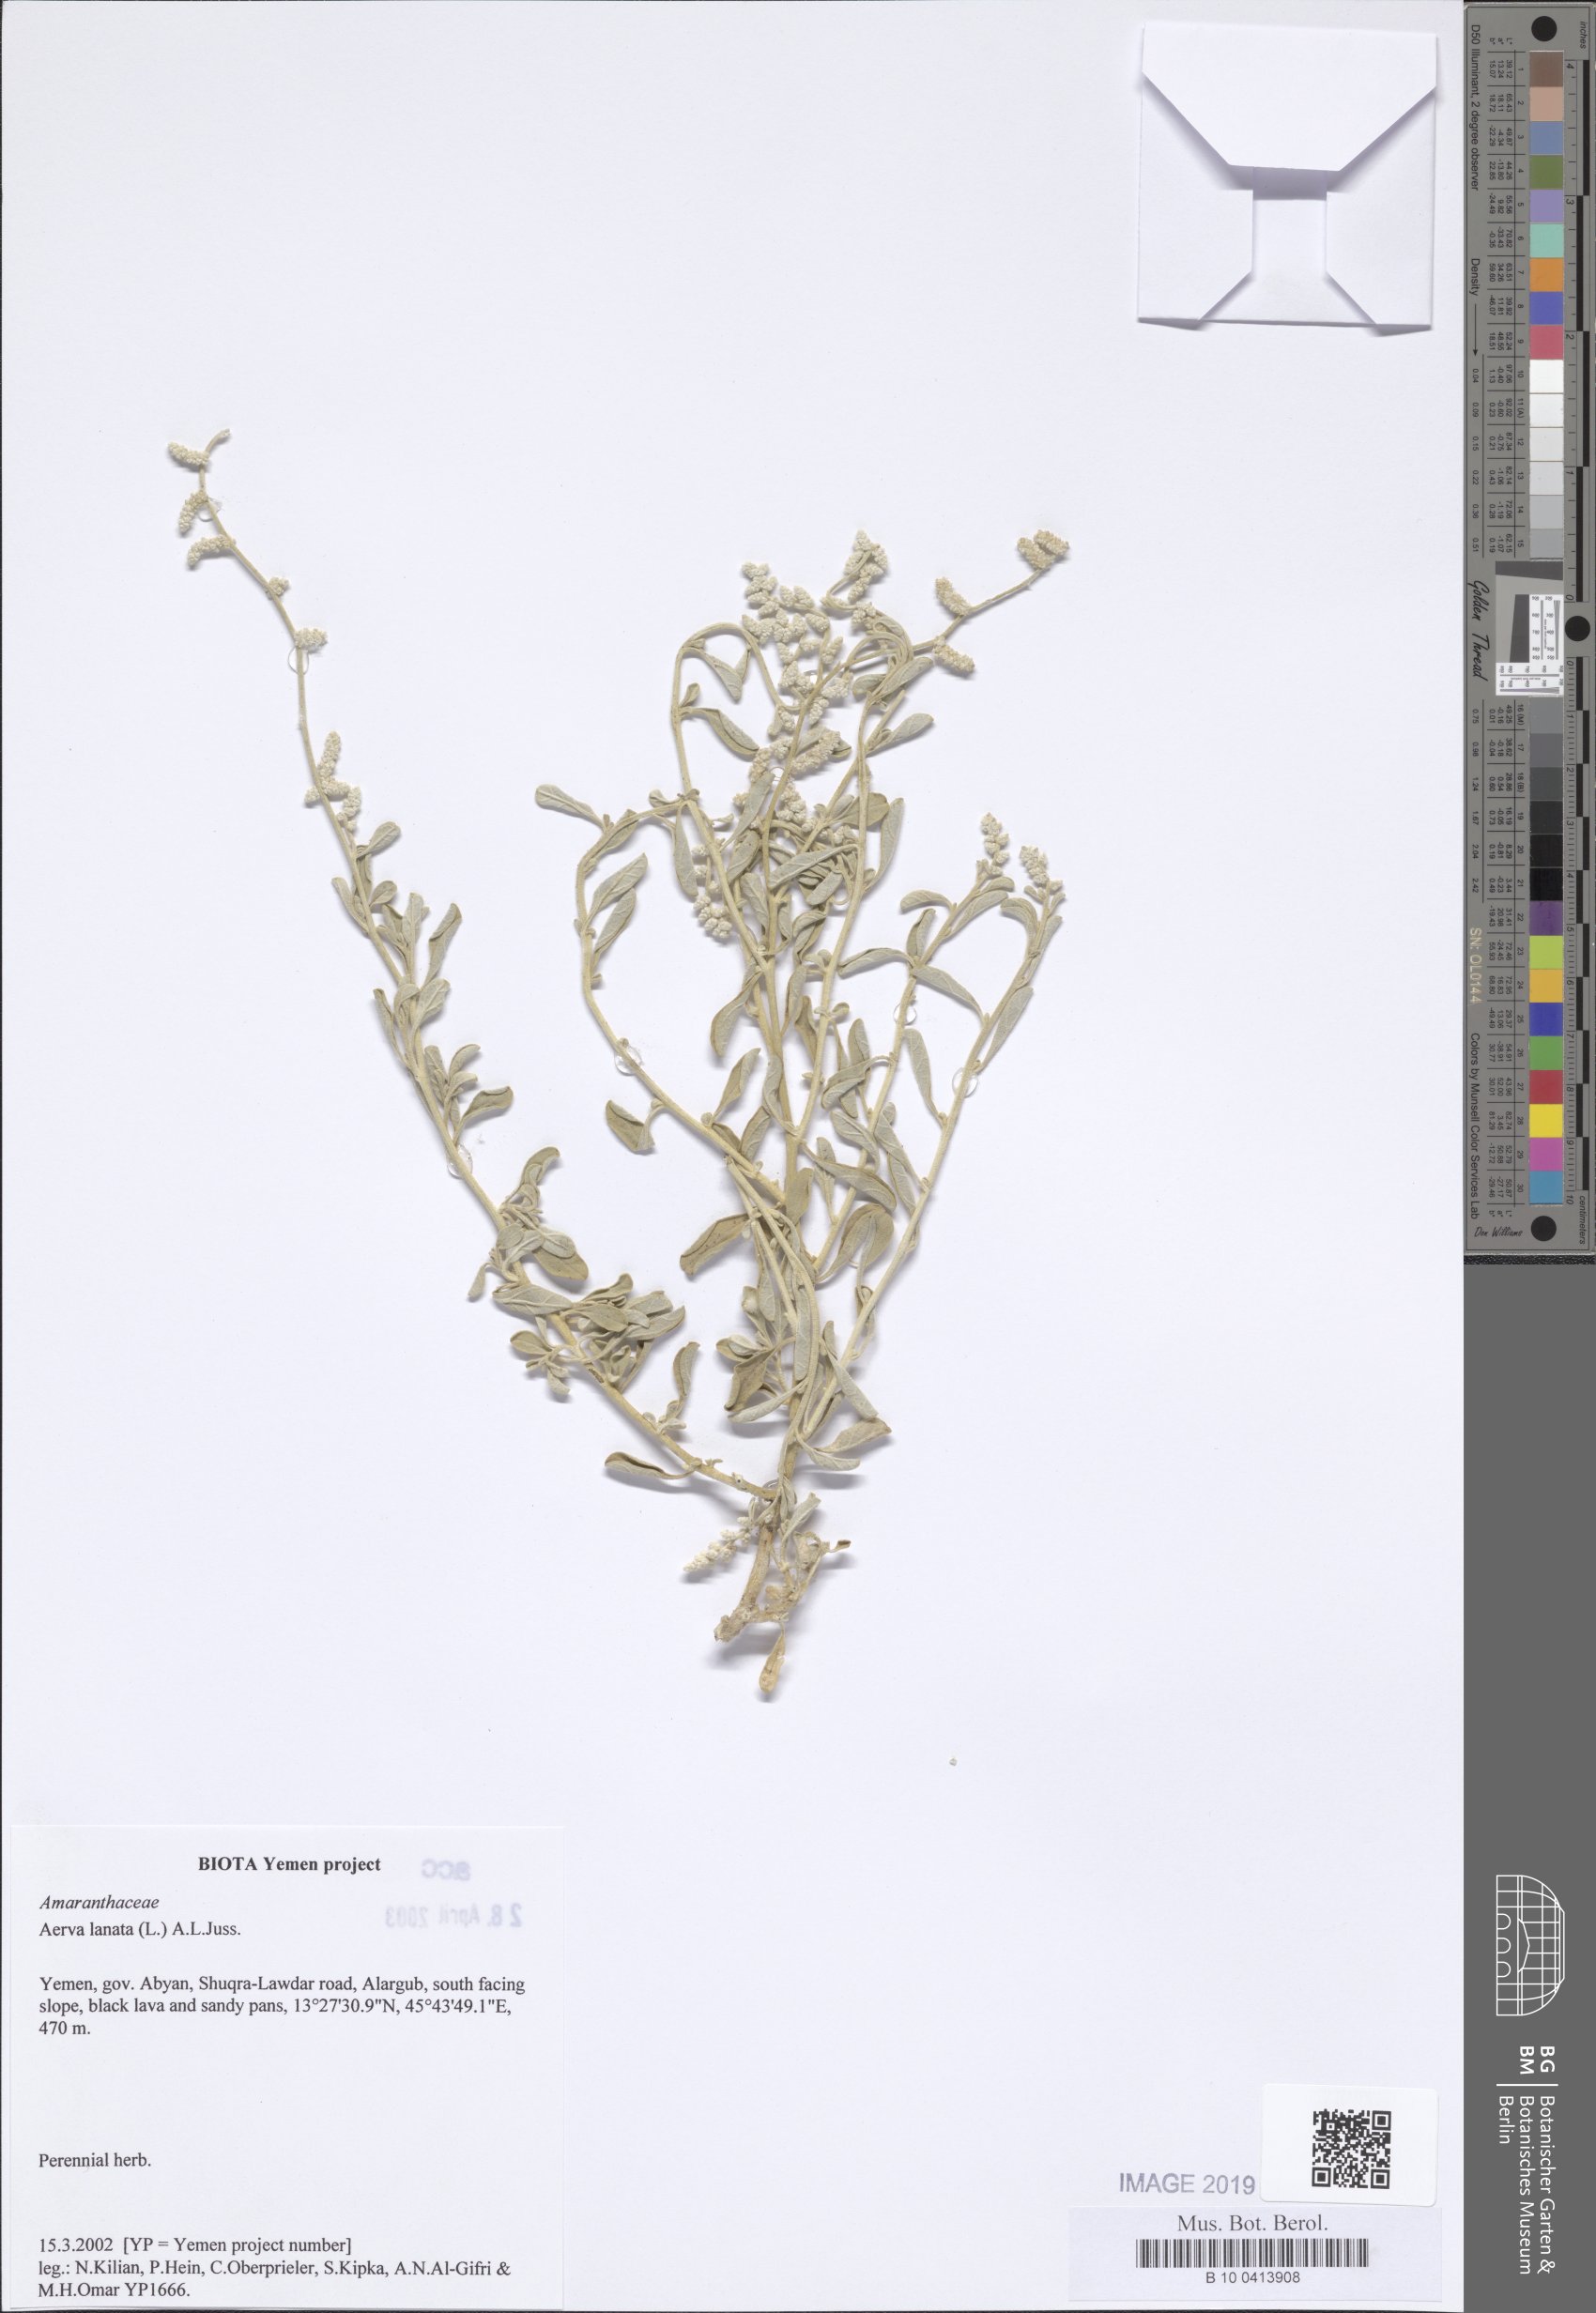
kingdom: Plantae
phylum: Tracheophyta
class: Magnoliopsida
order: Caryophyllales
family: Amaranthaceae
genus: Ouret
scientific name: Ouret lanata
